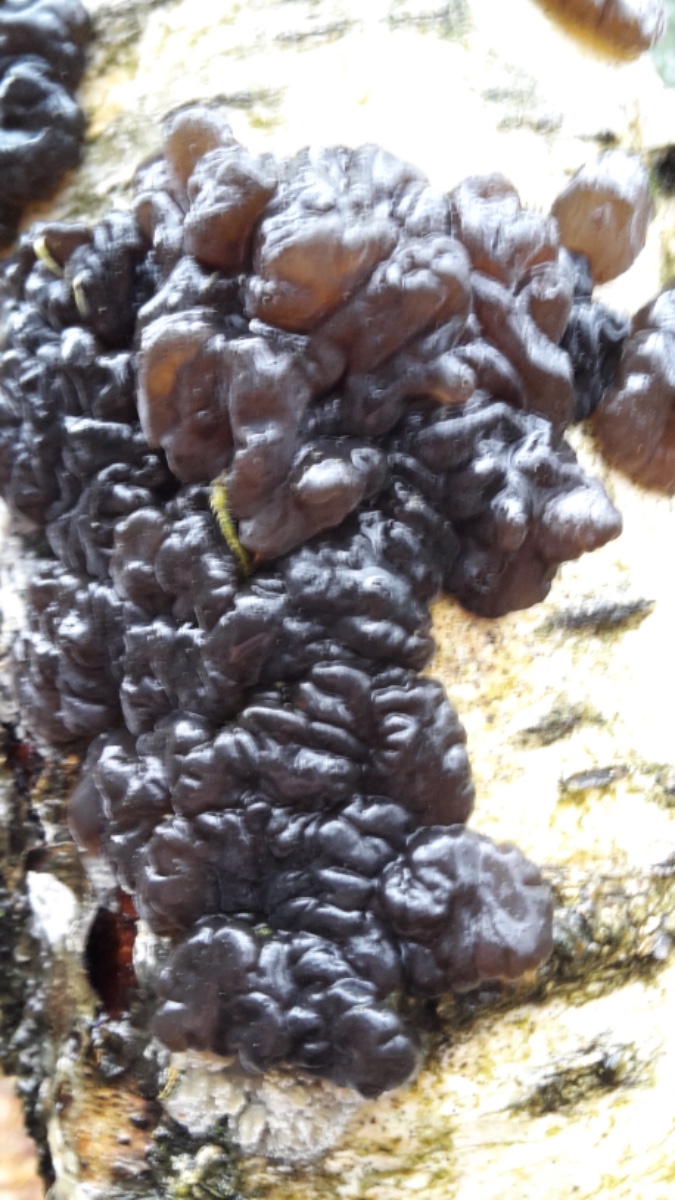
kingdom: Fungi
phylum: Basidiomycota
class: Agaricomycetes
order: Auriculariales
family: Auriculariaceae
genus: Exidia
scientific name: Exidia nigricans
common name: almindelig bævretop
